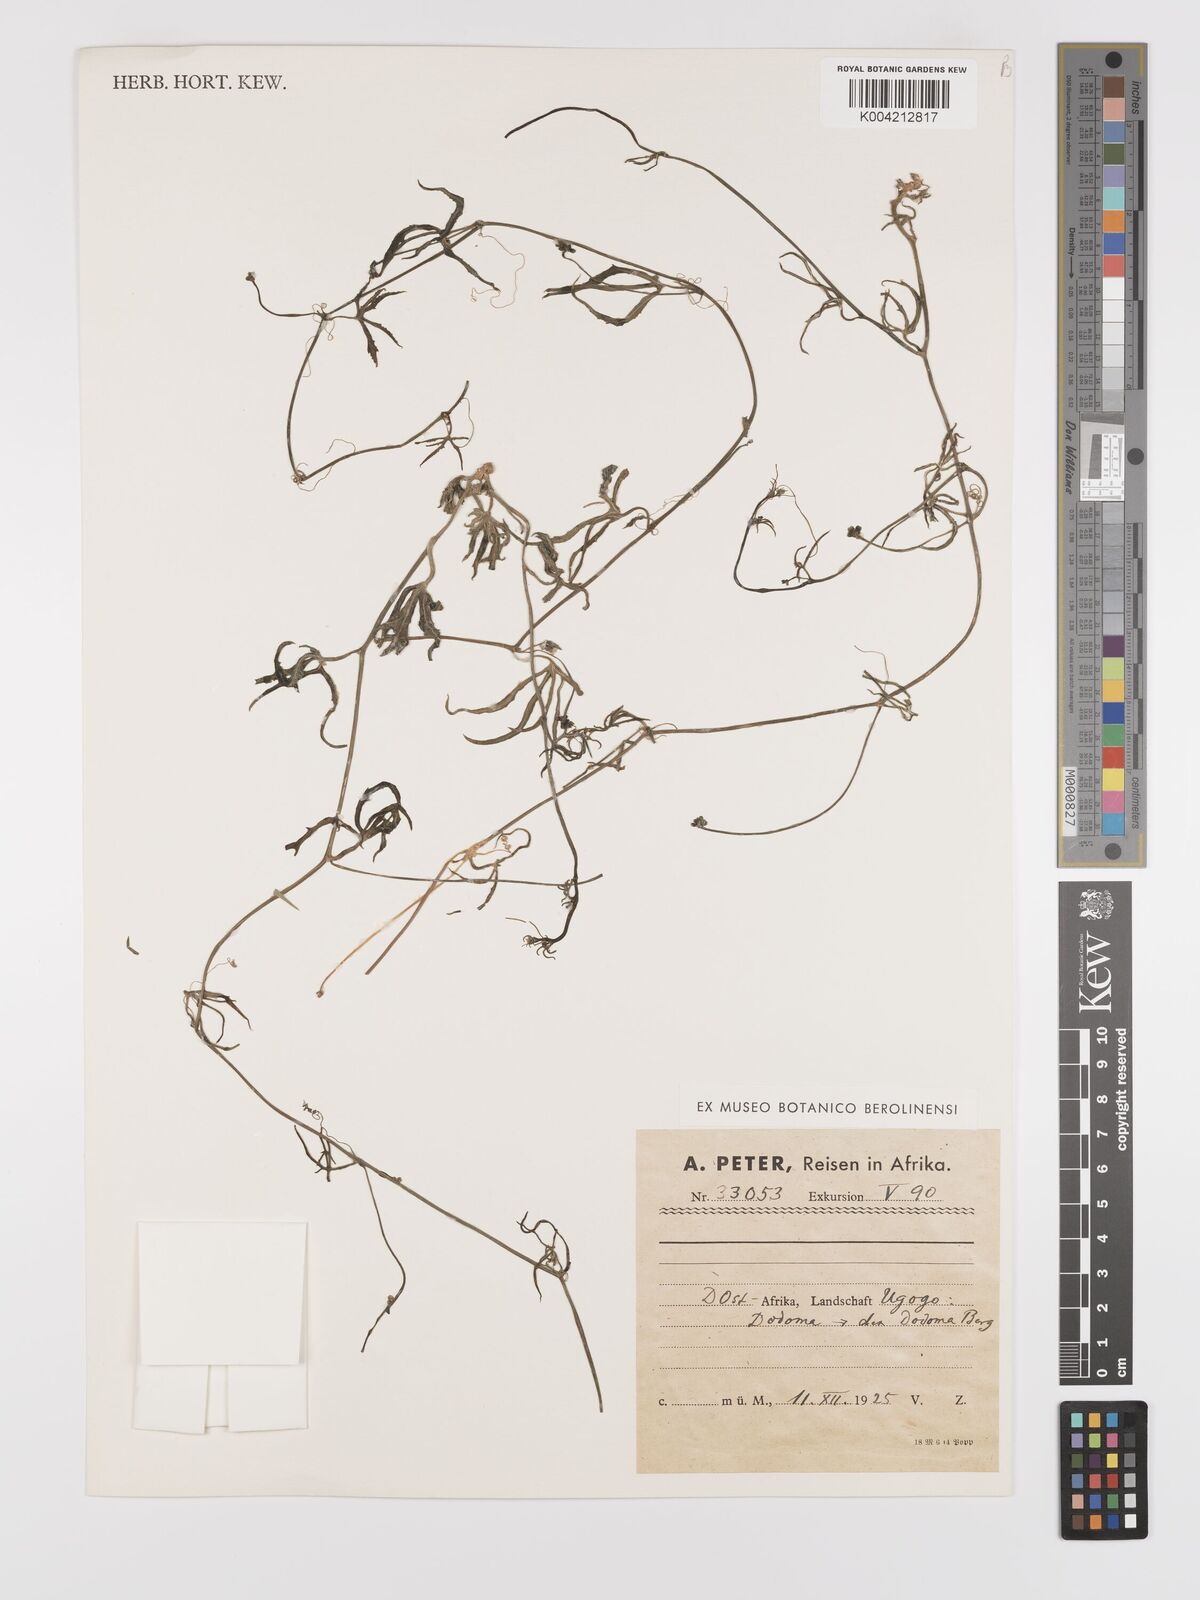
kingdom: Plantae
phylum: Tracheophyta
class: Magnoliopsida
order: Cucurbitales
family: Cucurbitaceae
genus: Corallocarpus
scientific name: Corallocarpus tenuissimus
